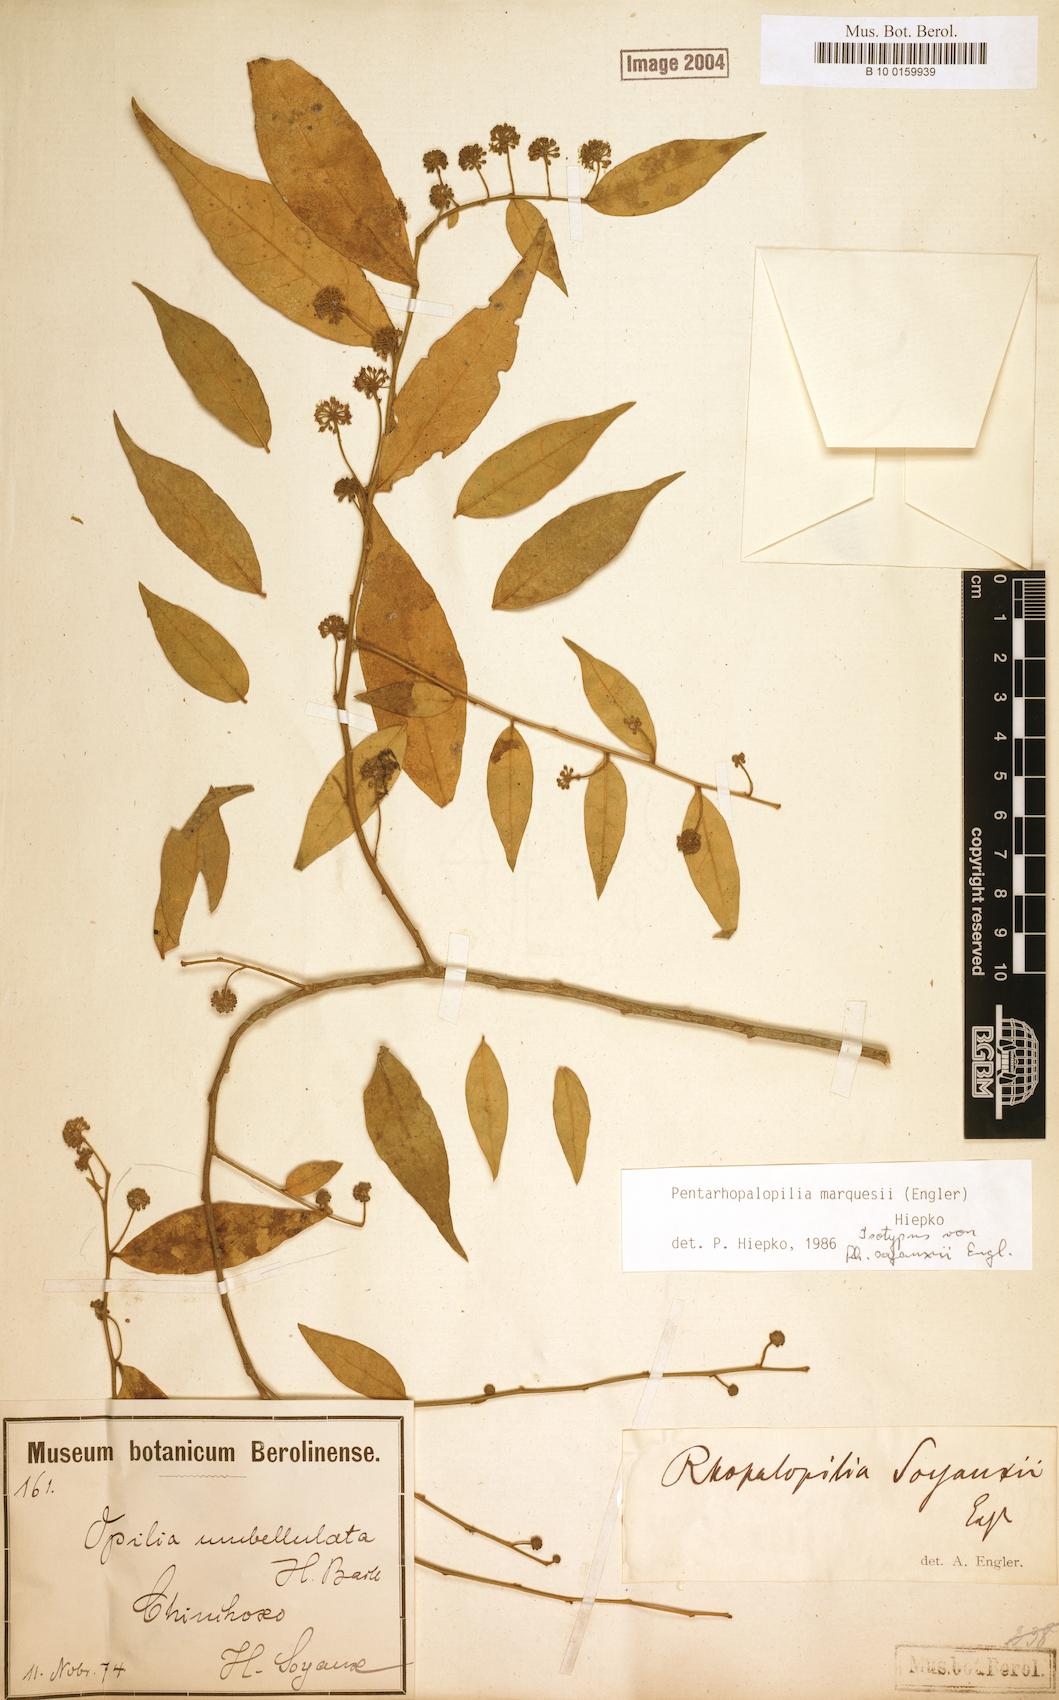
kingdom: Plantae
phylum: Tracheophyta
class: Magnoliopsida
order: Santalales
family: Opiliaceae
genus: Pentarhopalopilia
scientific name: Pentarhopalopilia marquesii
